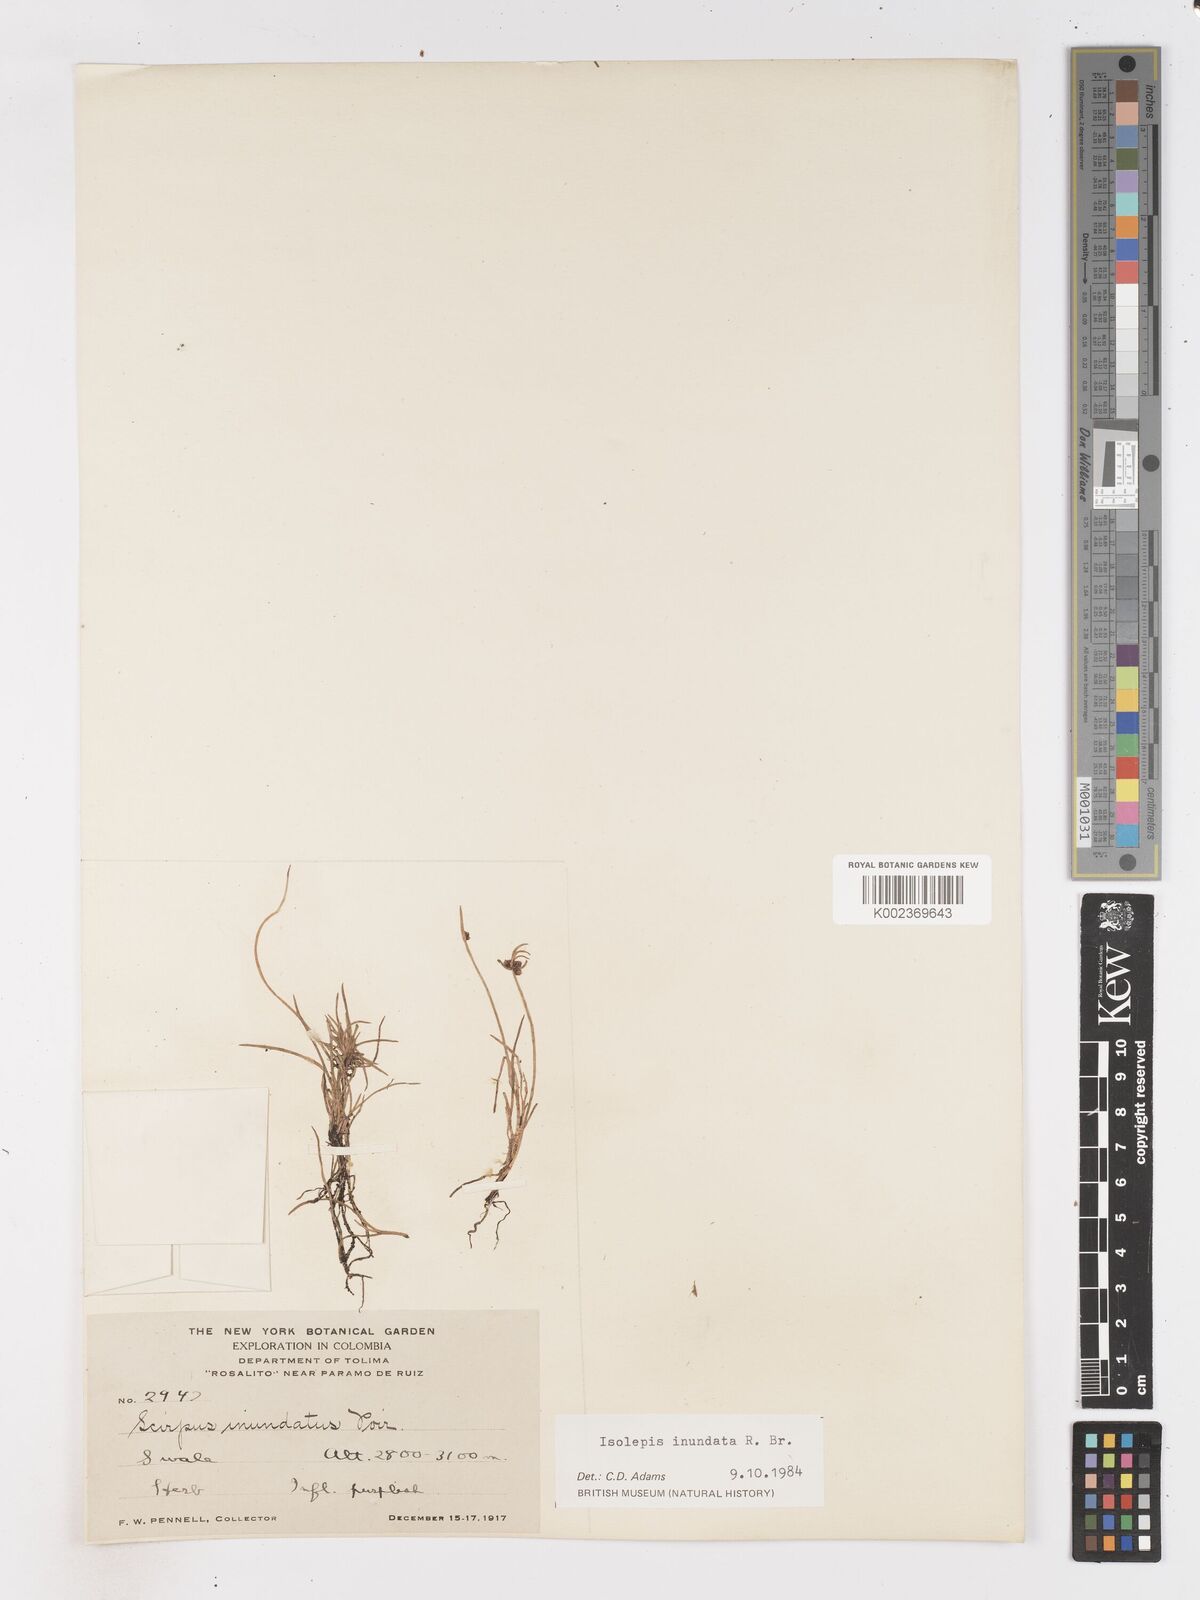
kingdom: Plantae
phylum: Tracheophyta
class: Liliopsida
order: Poales
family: Cyperaceae
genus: Isolepis
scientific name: Isolepis inundata
